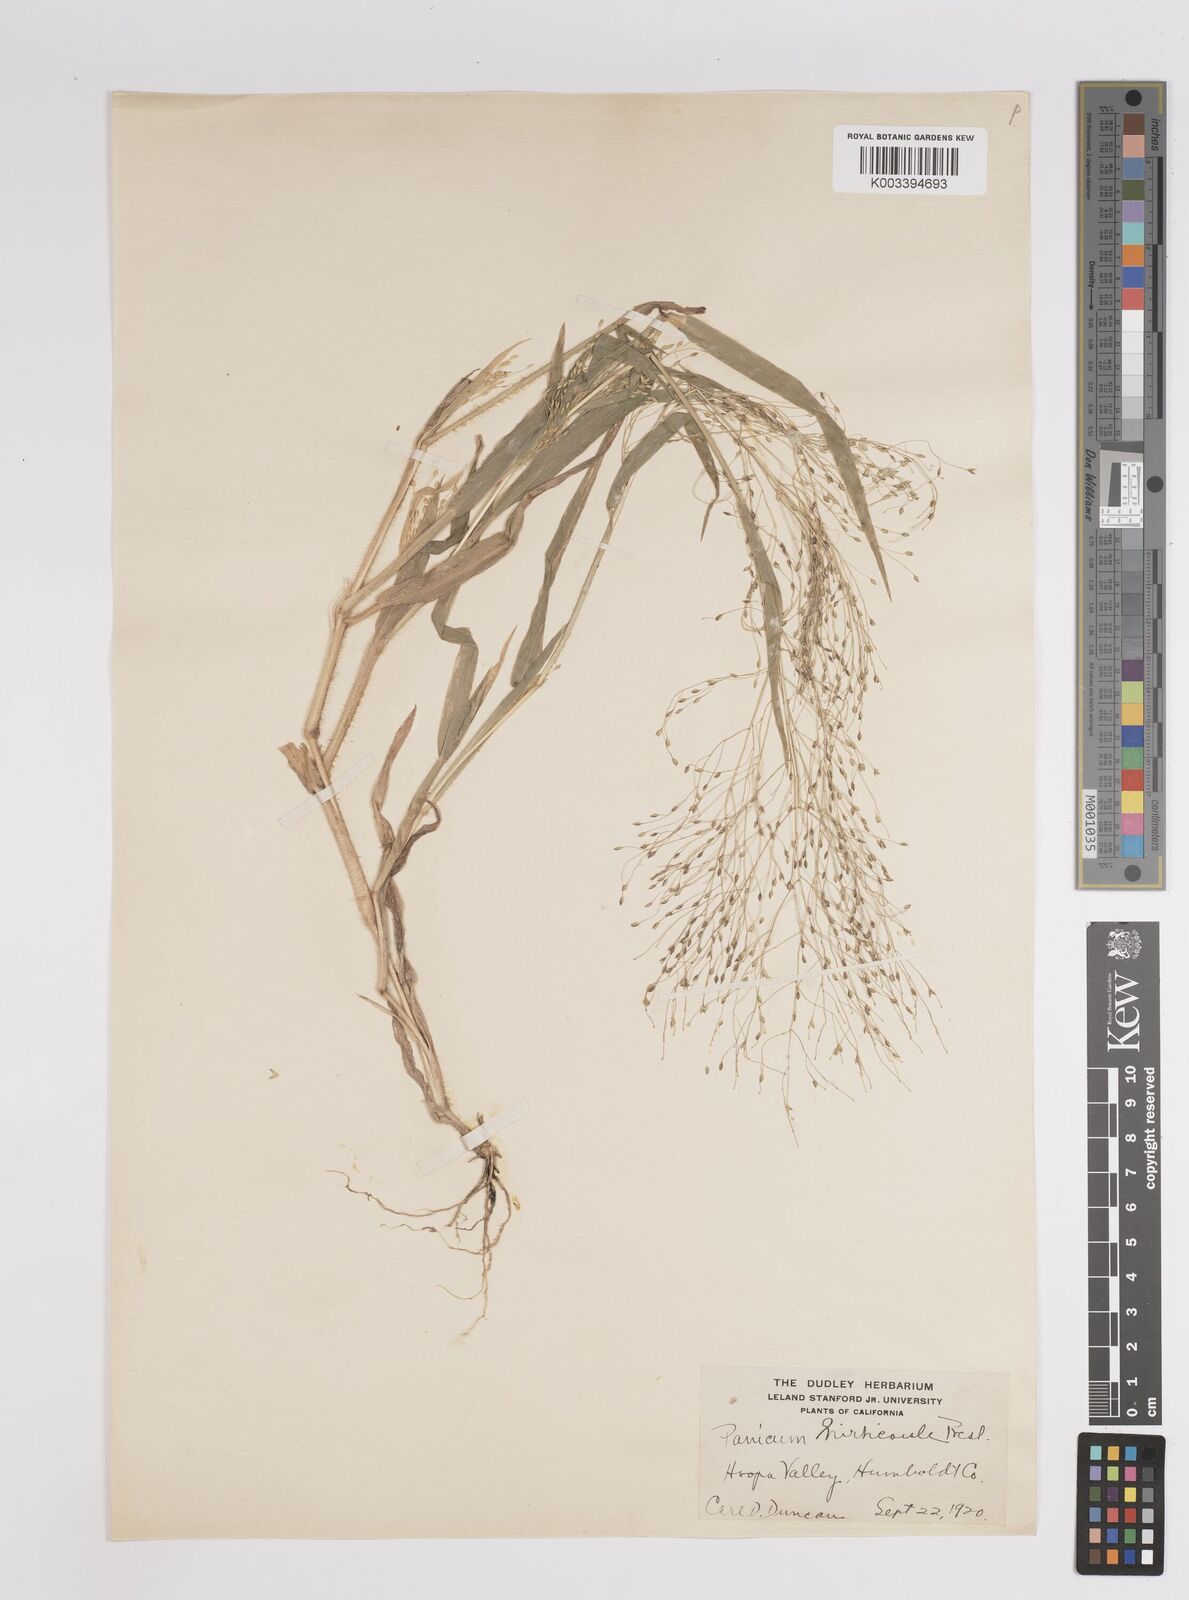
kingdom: Plantae
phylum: Tracheophyta
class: Liliopsida
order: Poales
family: Poaceae
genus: Panicum
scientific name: Panicum
